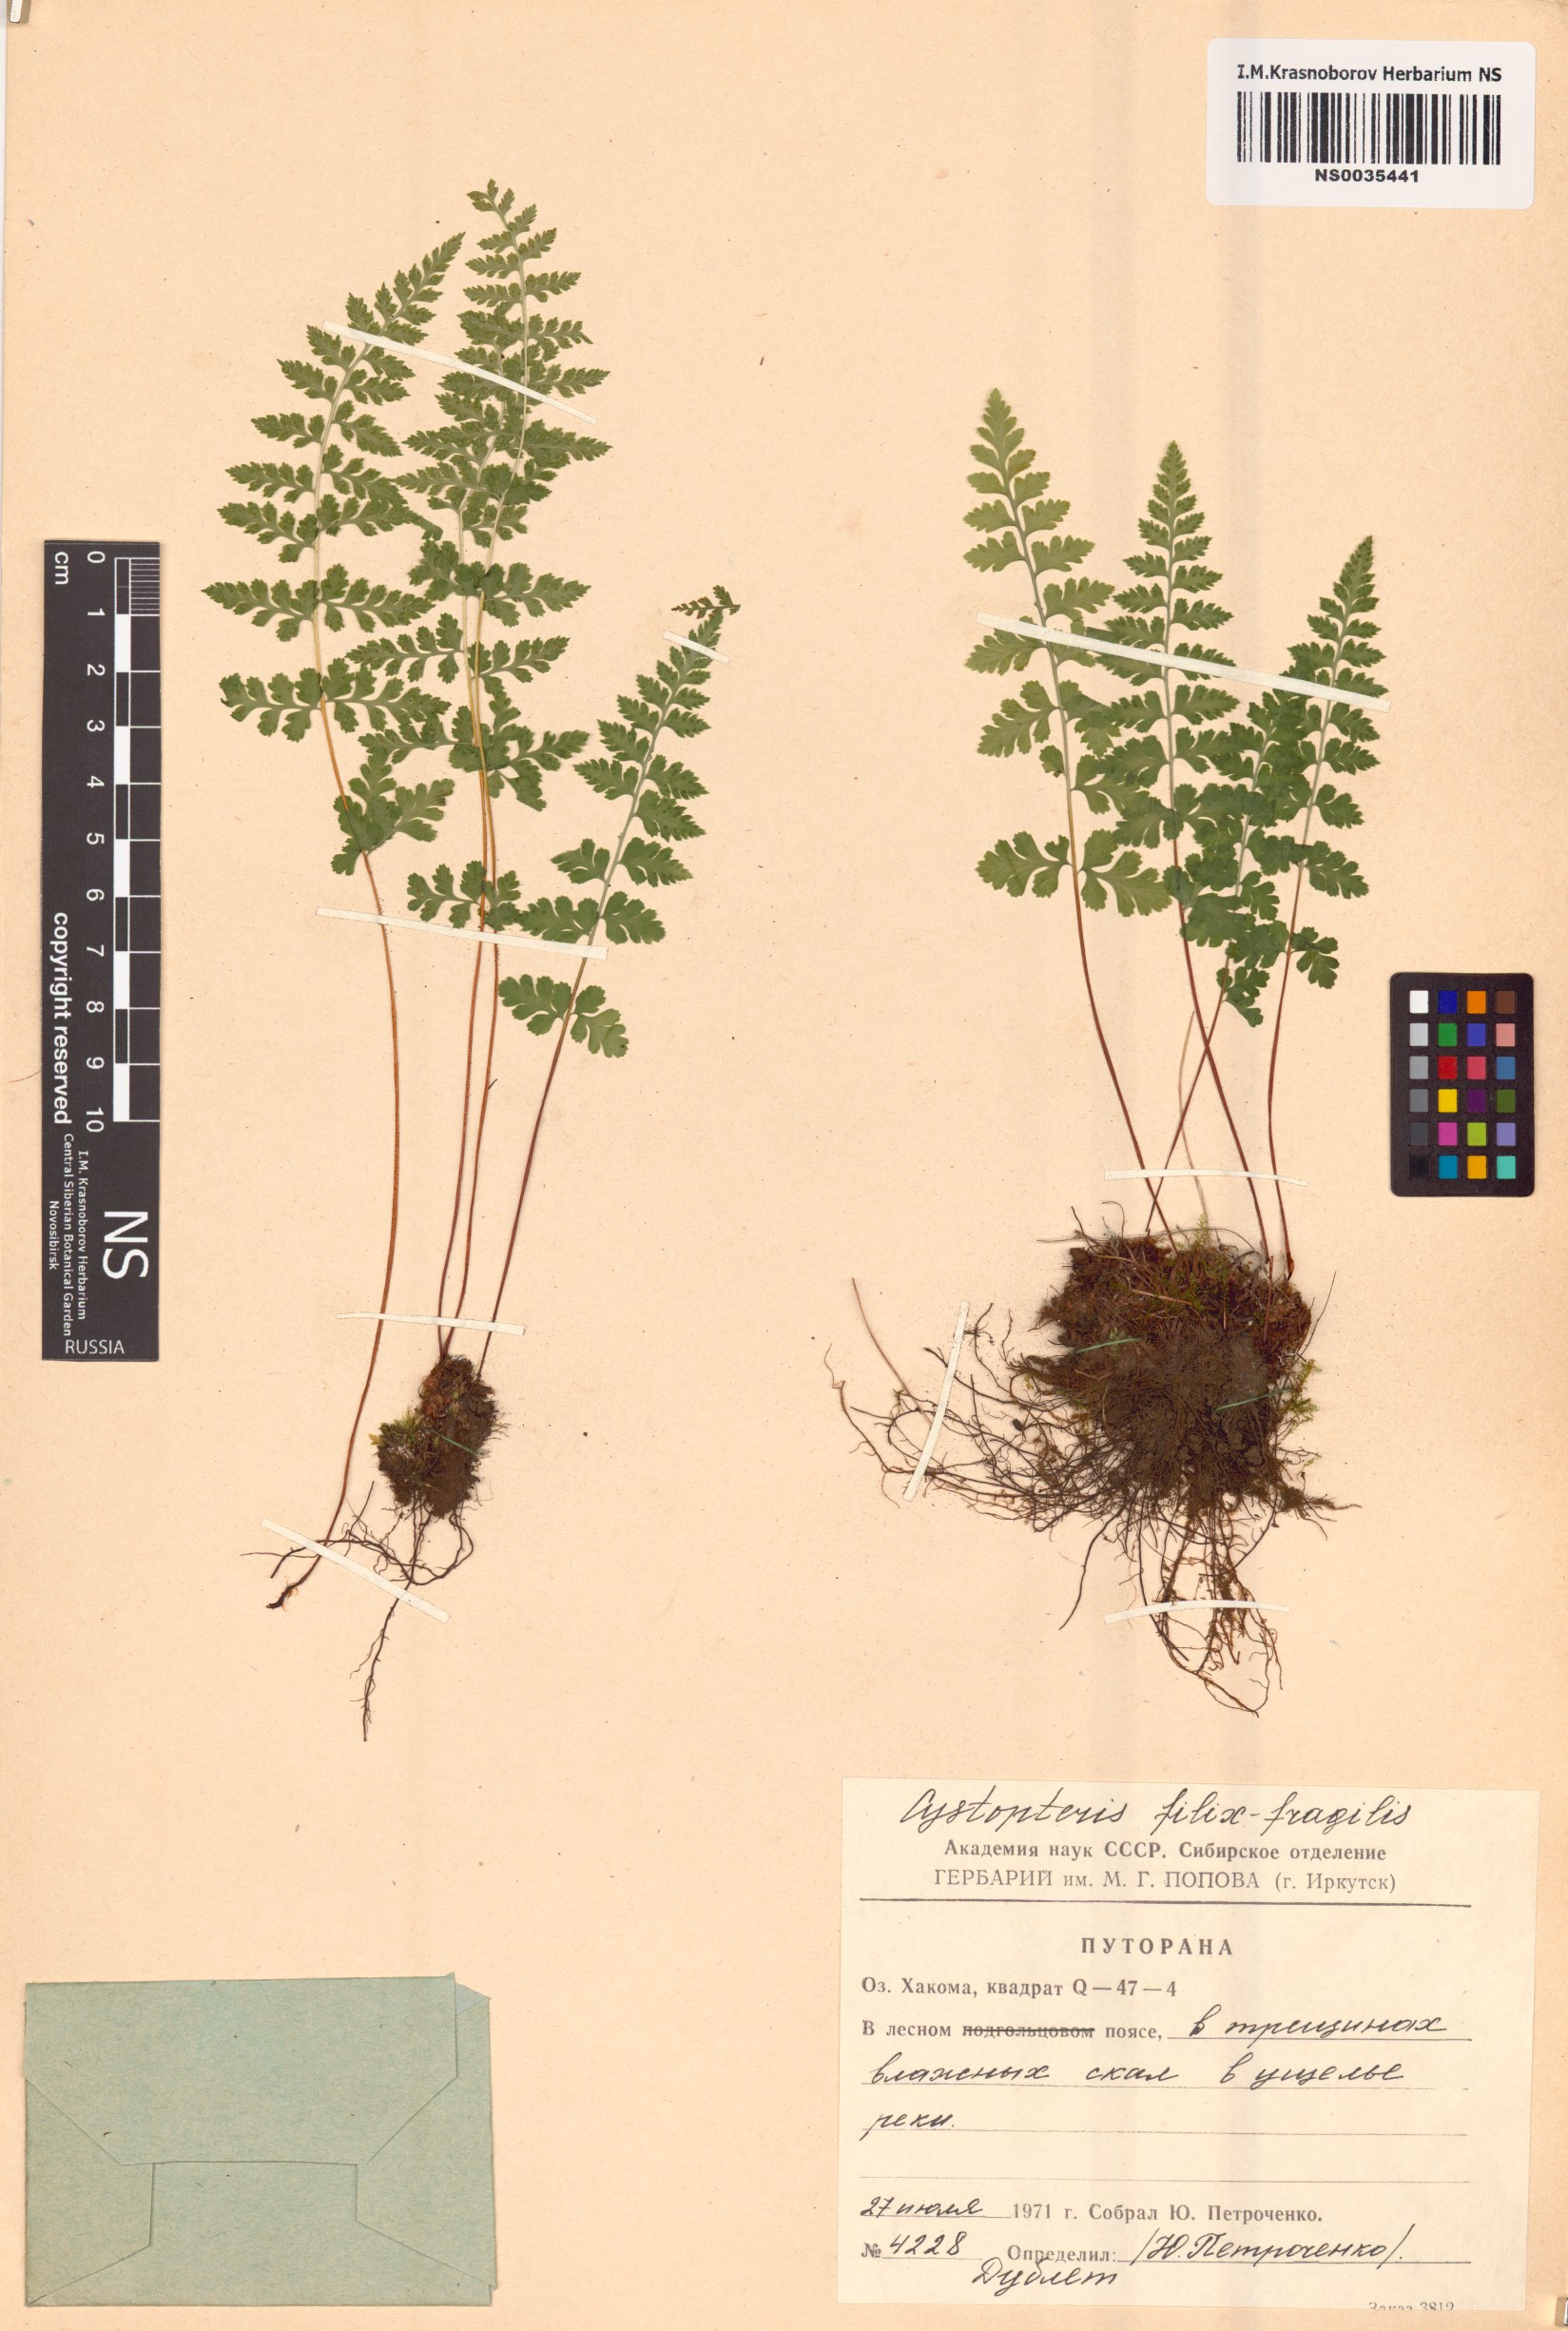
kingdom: Plantae
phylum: Tracheophyta
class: Polypodiopsida
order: Polypodiales
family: Cystopteridaceae
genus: Cystopteris
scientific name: Cystopteris fragilis
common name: Brittle bladder fern
